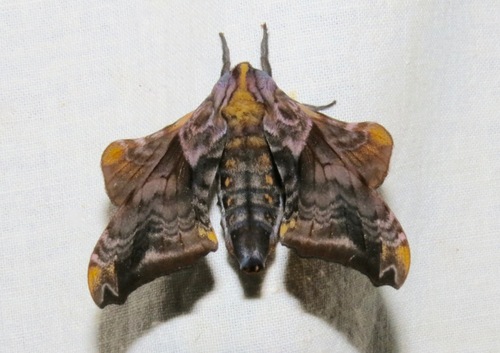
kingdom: Animalia
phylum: Arthropoda
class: Insecta
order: Lepidoptera
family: Sphingidae
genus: Paonias
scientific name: Paonias myops
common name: Small-eyed sphinx
